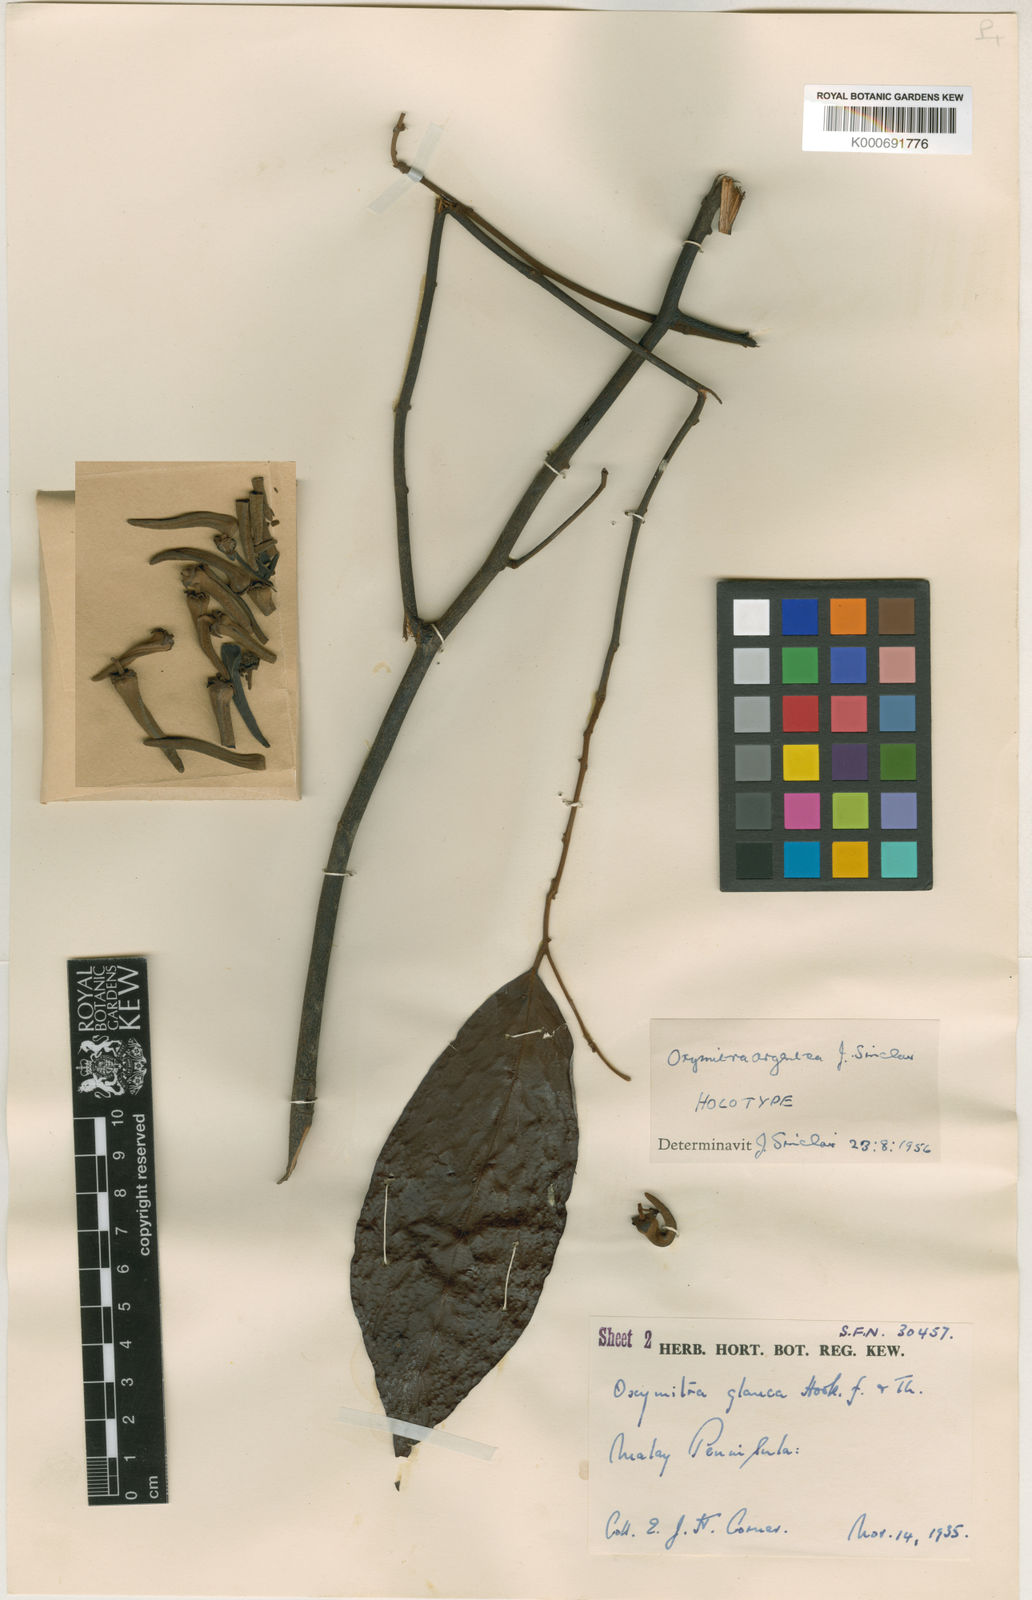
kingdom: Plantae
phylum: Tracheophyta
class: Magnoliopsida
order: Magnoliales
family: Annonaceae
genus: Friesodielsia
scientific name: Friesodielsia glauca
